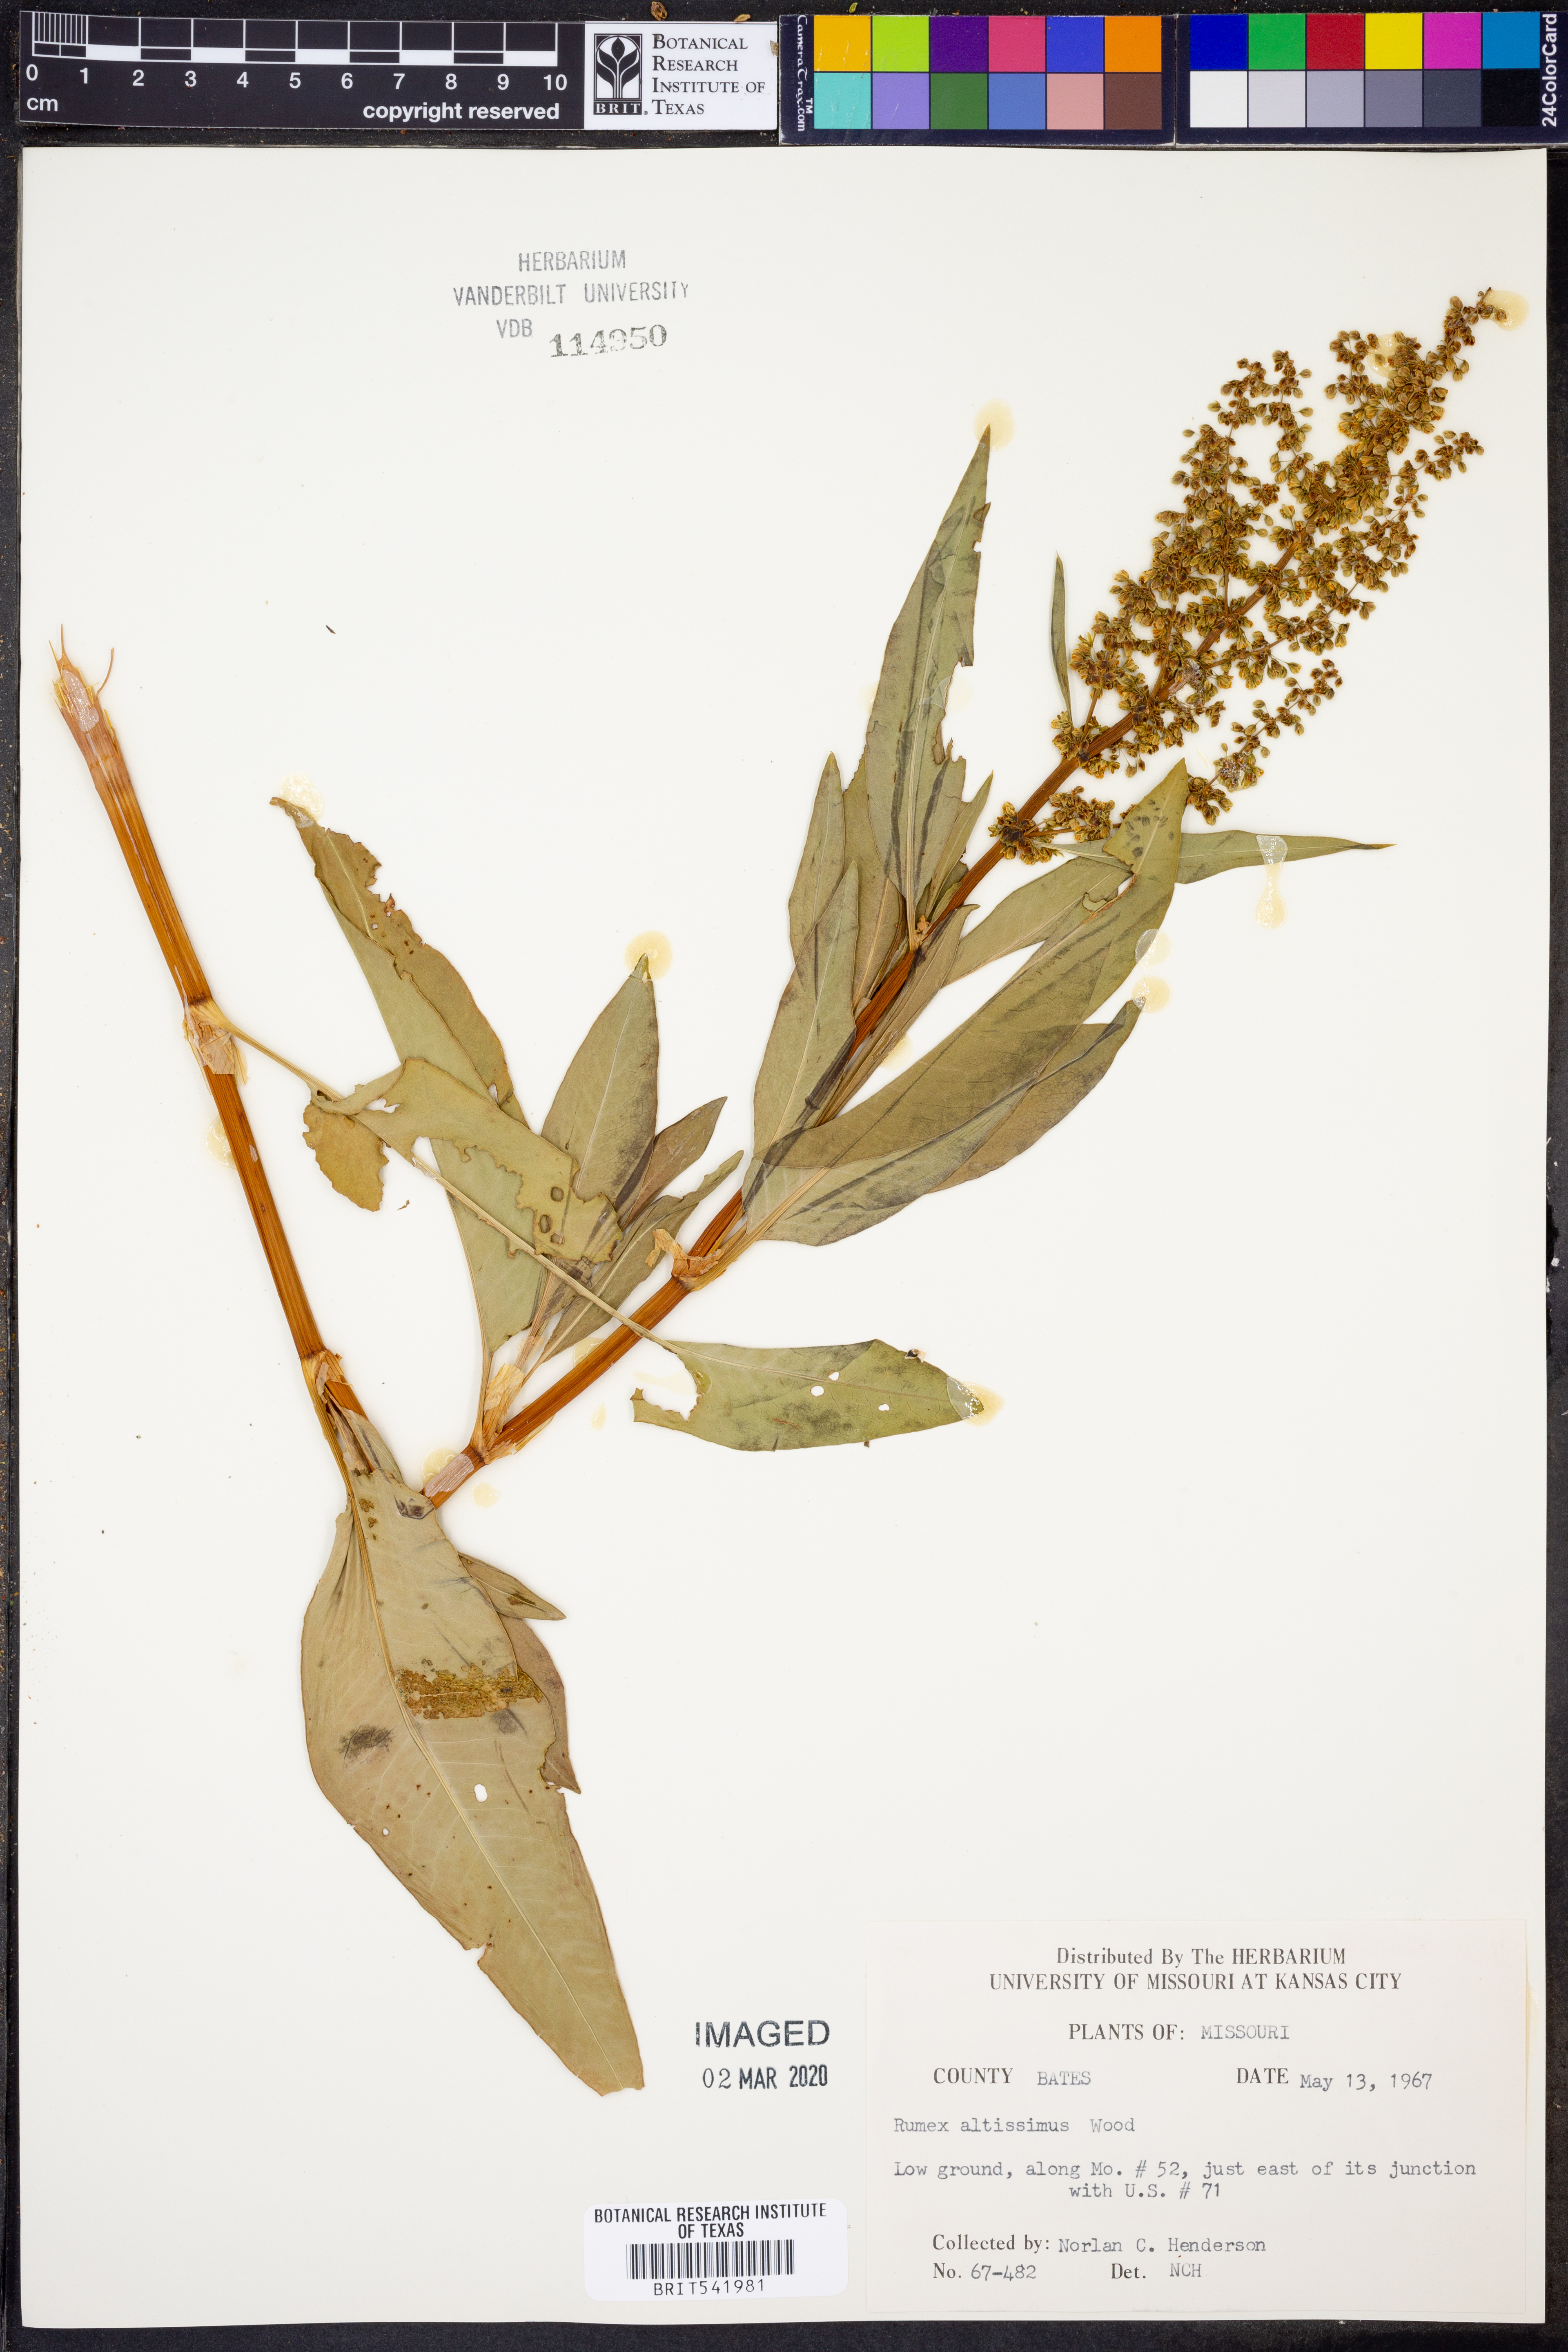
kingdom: Plantae
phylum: Tracheophyta
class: Magnoliopsida
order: Caryophyllales
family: Polygonaceae
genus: Rumex
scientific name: Rumex altissimus
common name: Smooth dock
